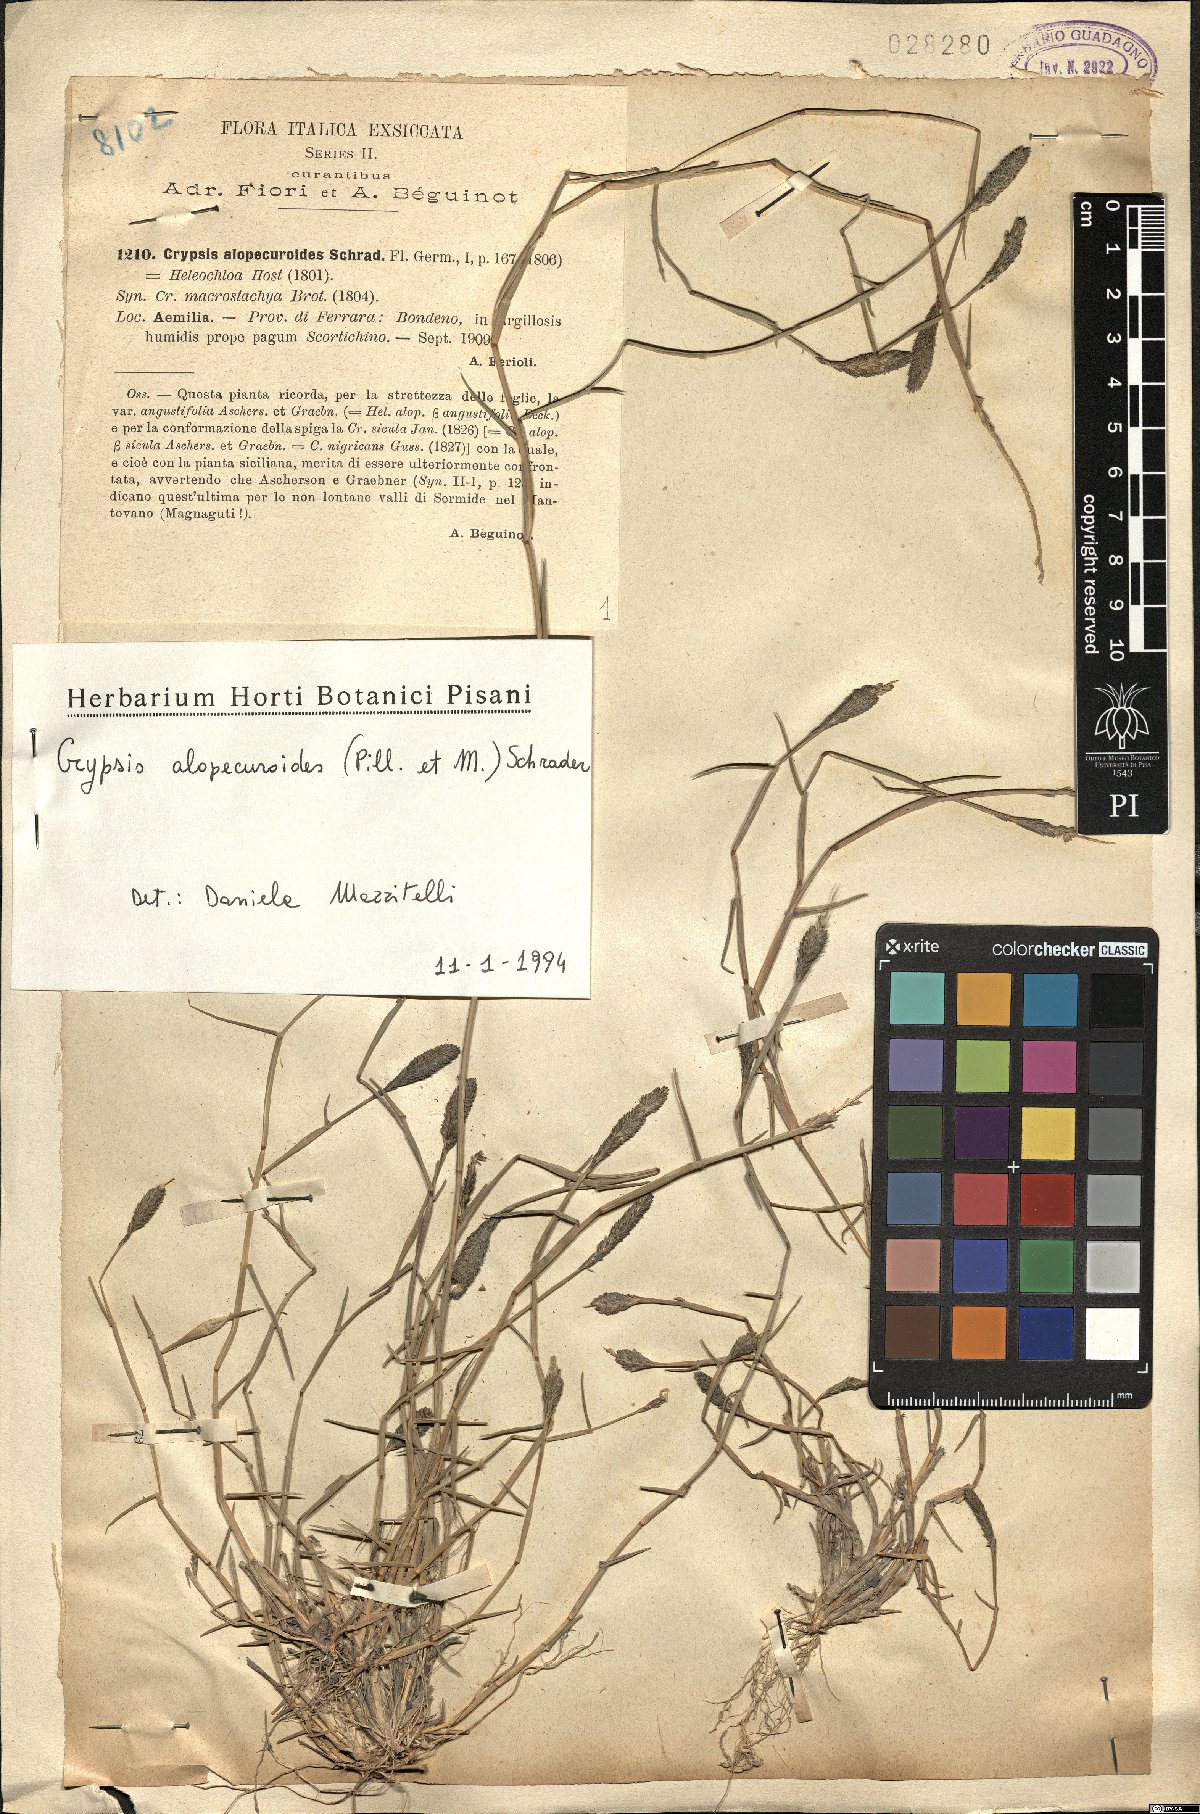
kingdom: Plantae
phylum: Tracheophyta
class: Liliopsida
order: Poales
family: Poaceae
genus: Sporobolus
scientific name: Sporobolus alopecuroides
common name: Foxtail pricklegrass
